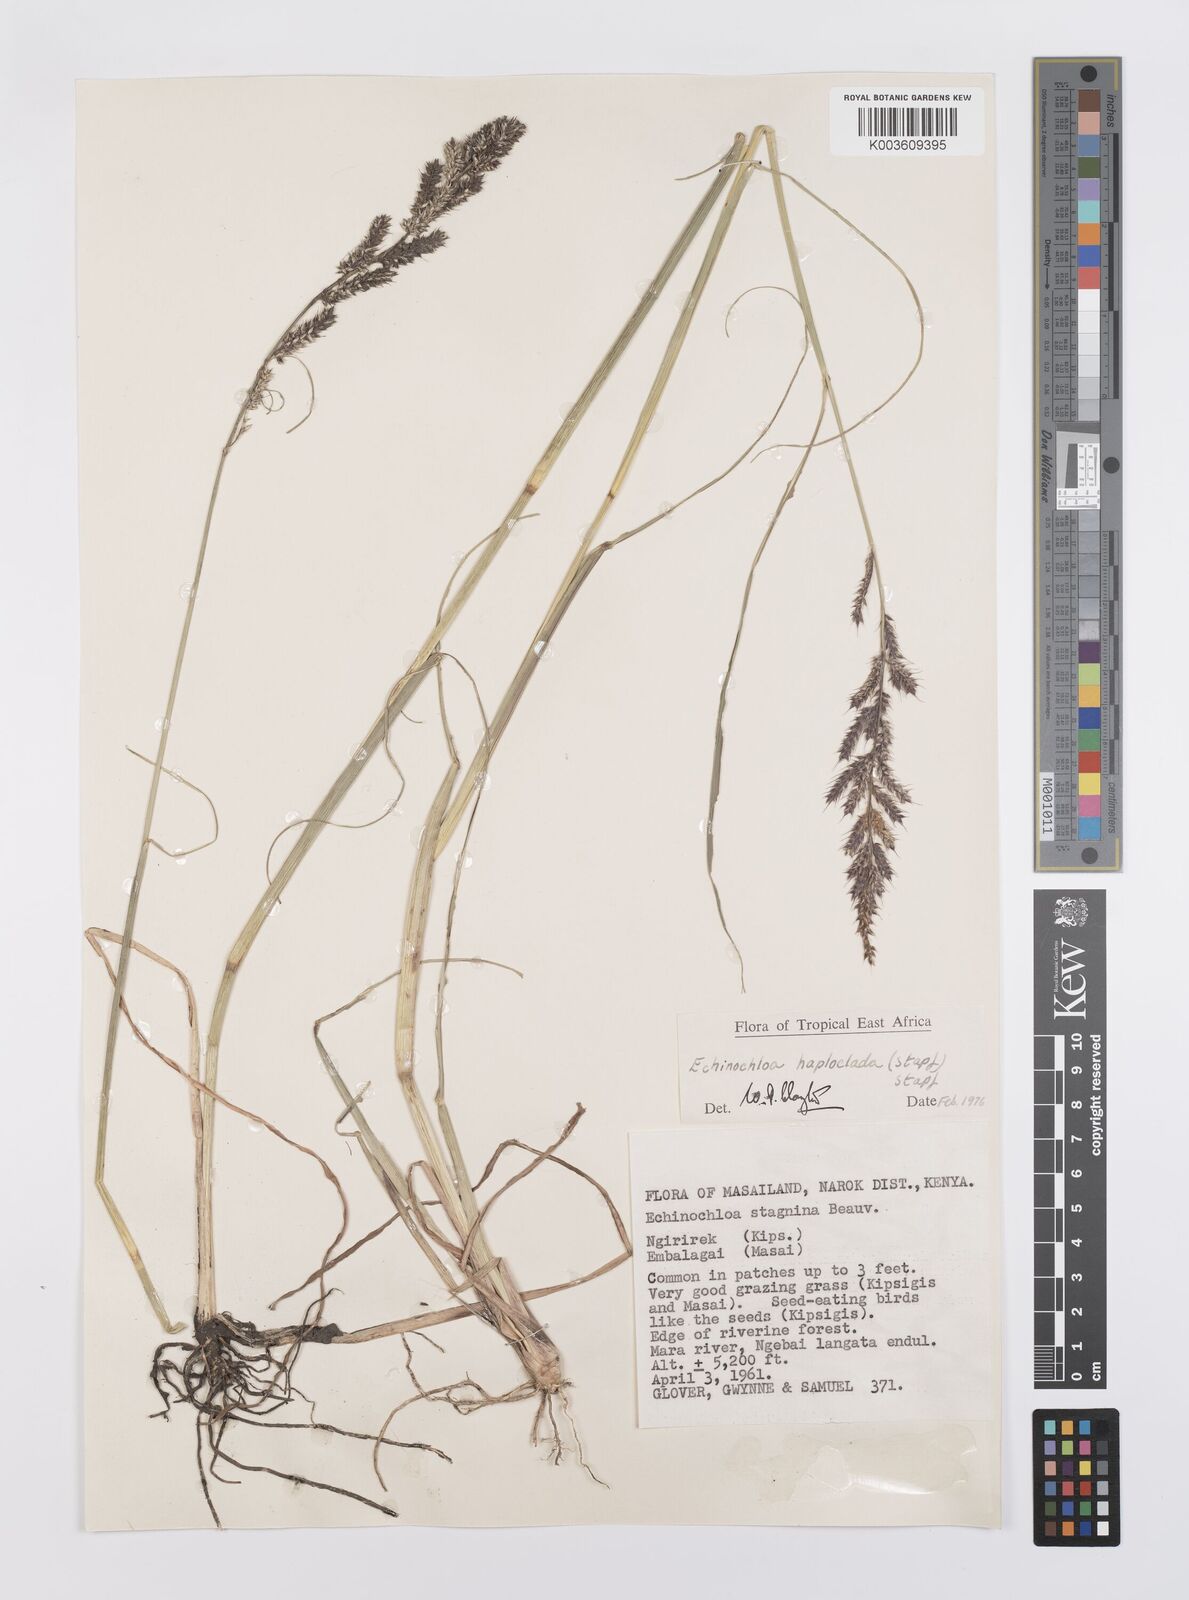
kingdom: Plantae
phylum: Tracheophyta
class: Liliopsida
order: Poales
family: Poaceae
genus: Echinochloa
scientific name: Echinochloa haploclada
